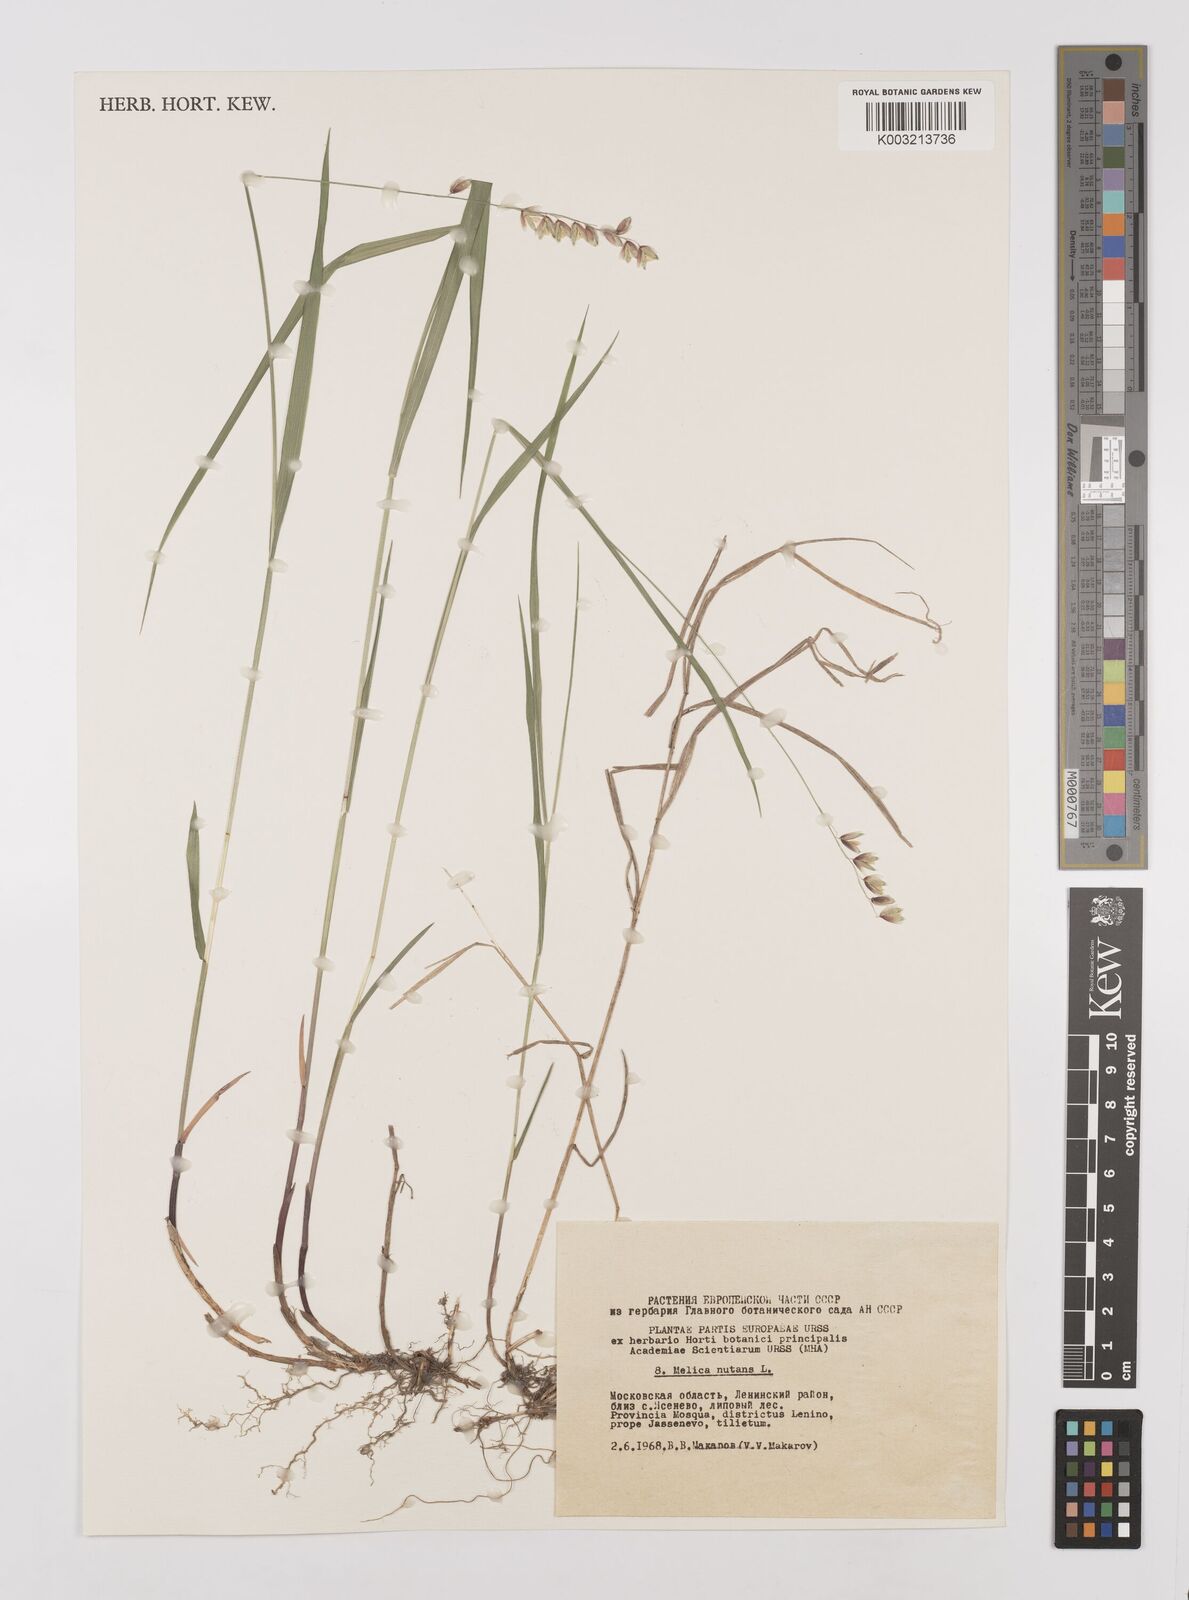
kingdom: Plantae
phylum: Tracheophyta
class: Liliopsida
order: Poales
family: Poaceae
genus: Melica
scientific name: Melica
